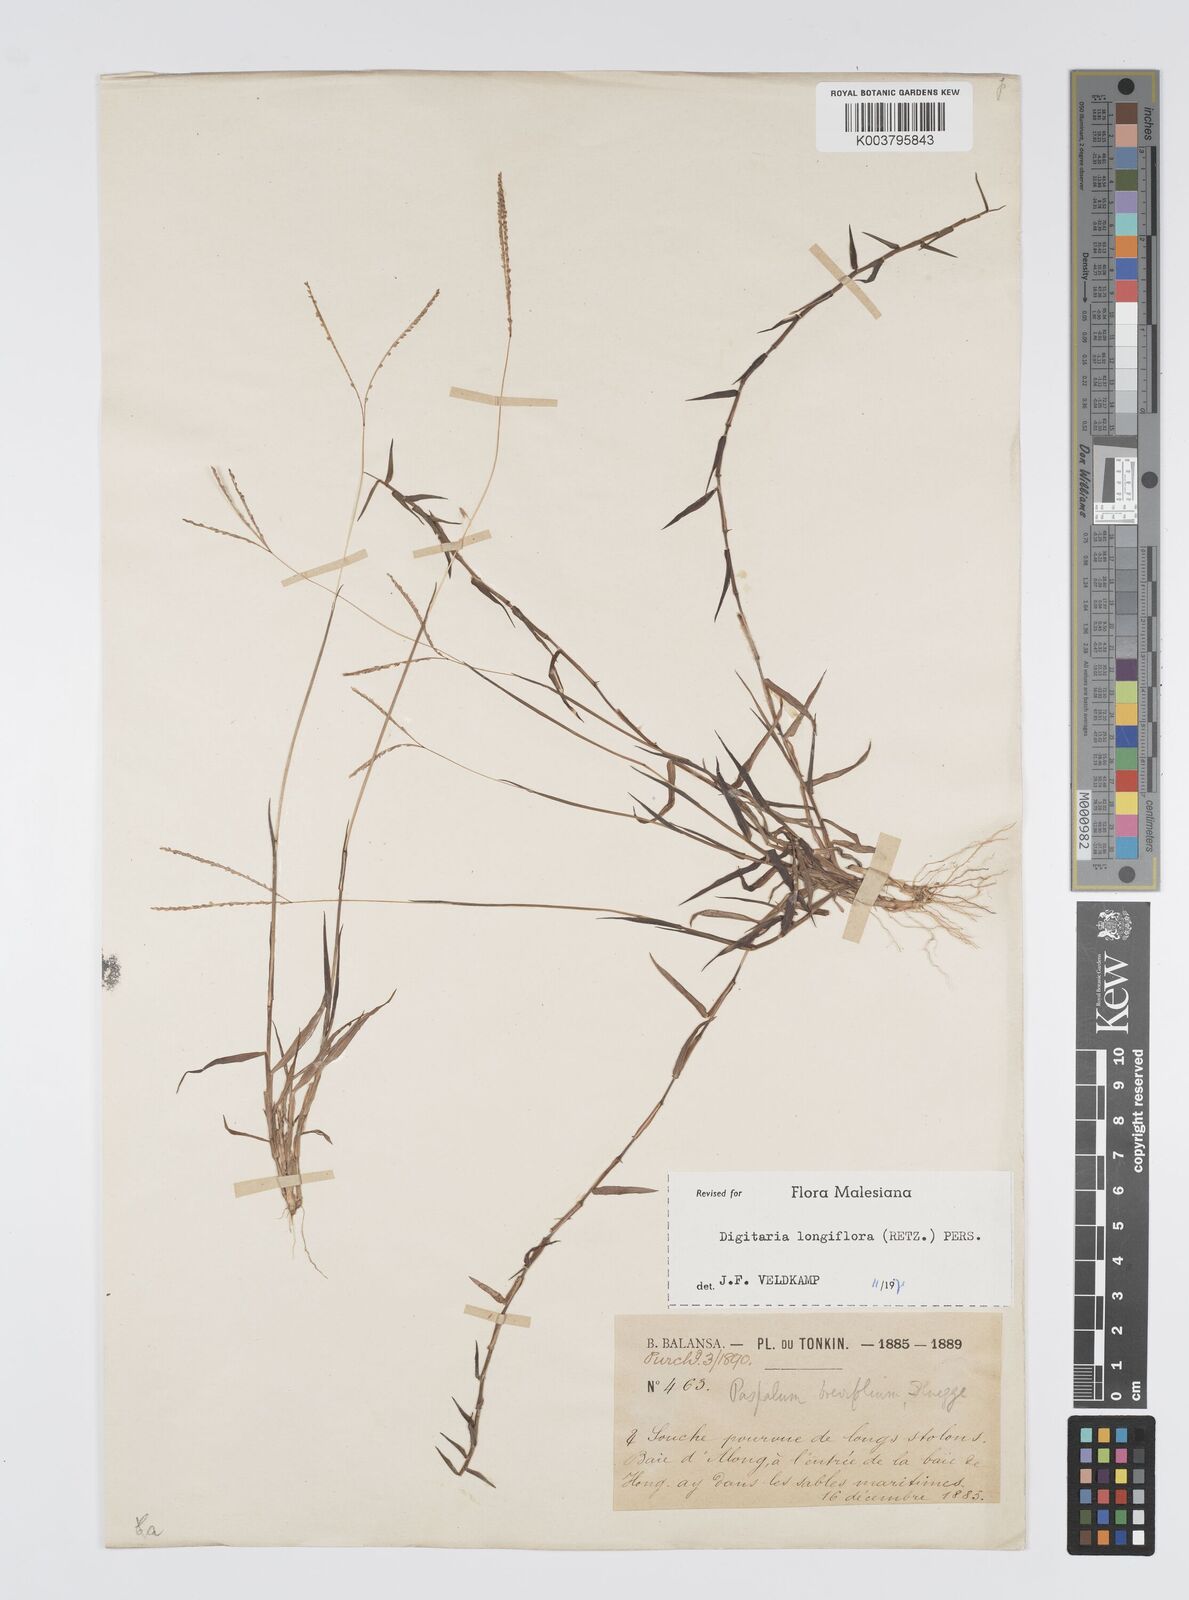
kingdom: Plantae
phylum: Tracheophyta
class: Liliopsida
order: Poales
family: Poaceae
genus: Digitaria
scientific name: Digitaria longiflora
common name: Wire crabgrass
